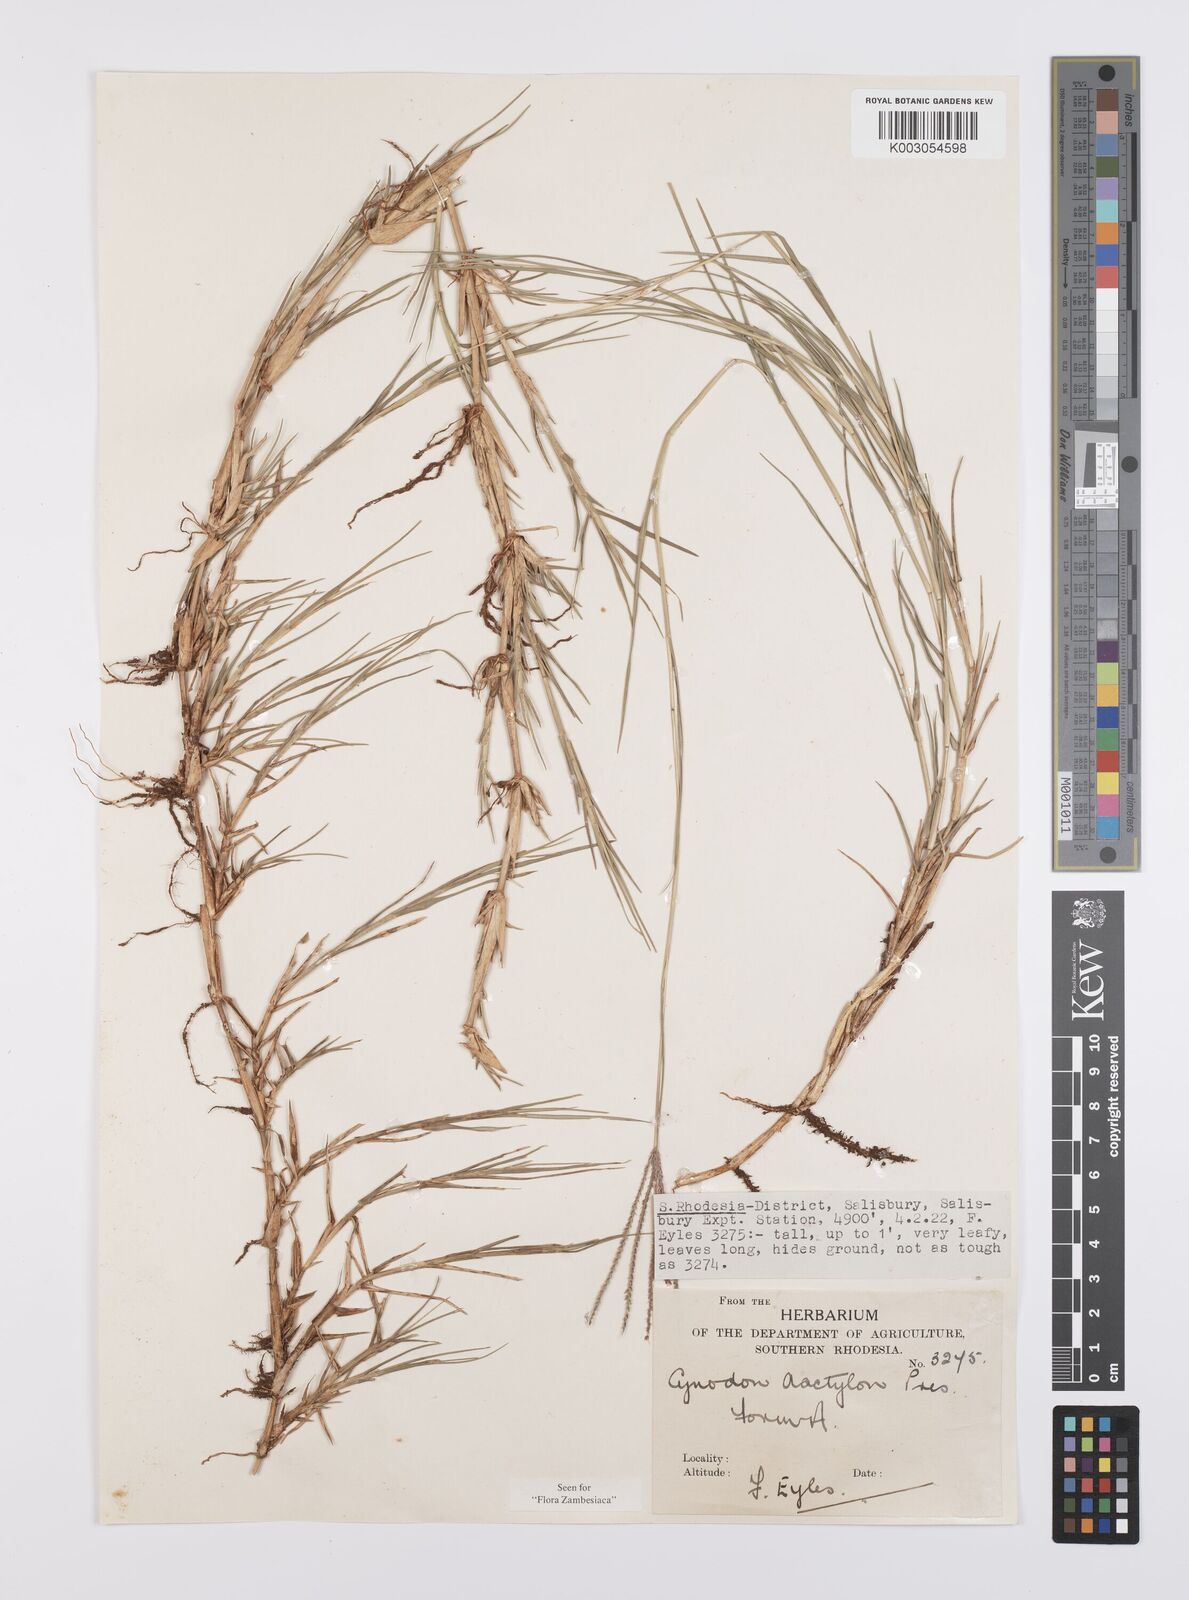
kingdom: Plantae
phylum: Tracheophyta
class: Liliopsida
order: Poales
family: Poaceae
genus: Cynodon
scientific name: Cynodon dactylon
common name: Bermuda grass
